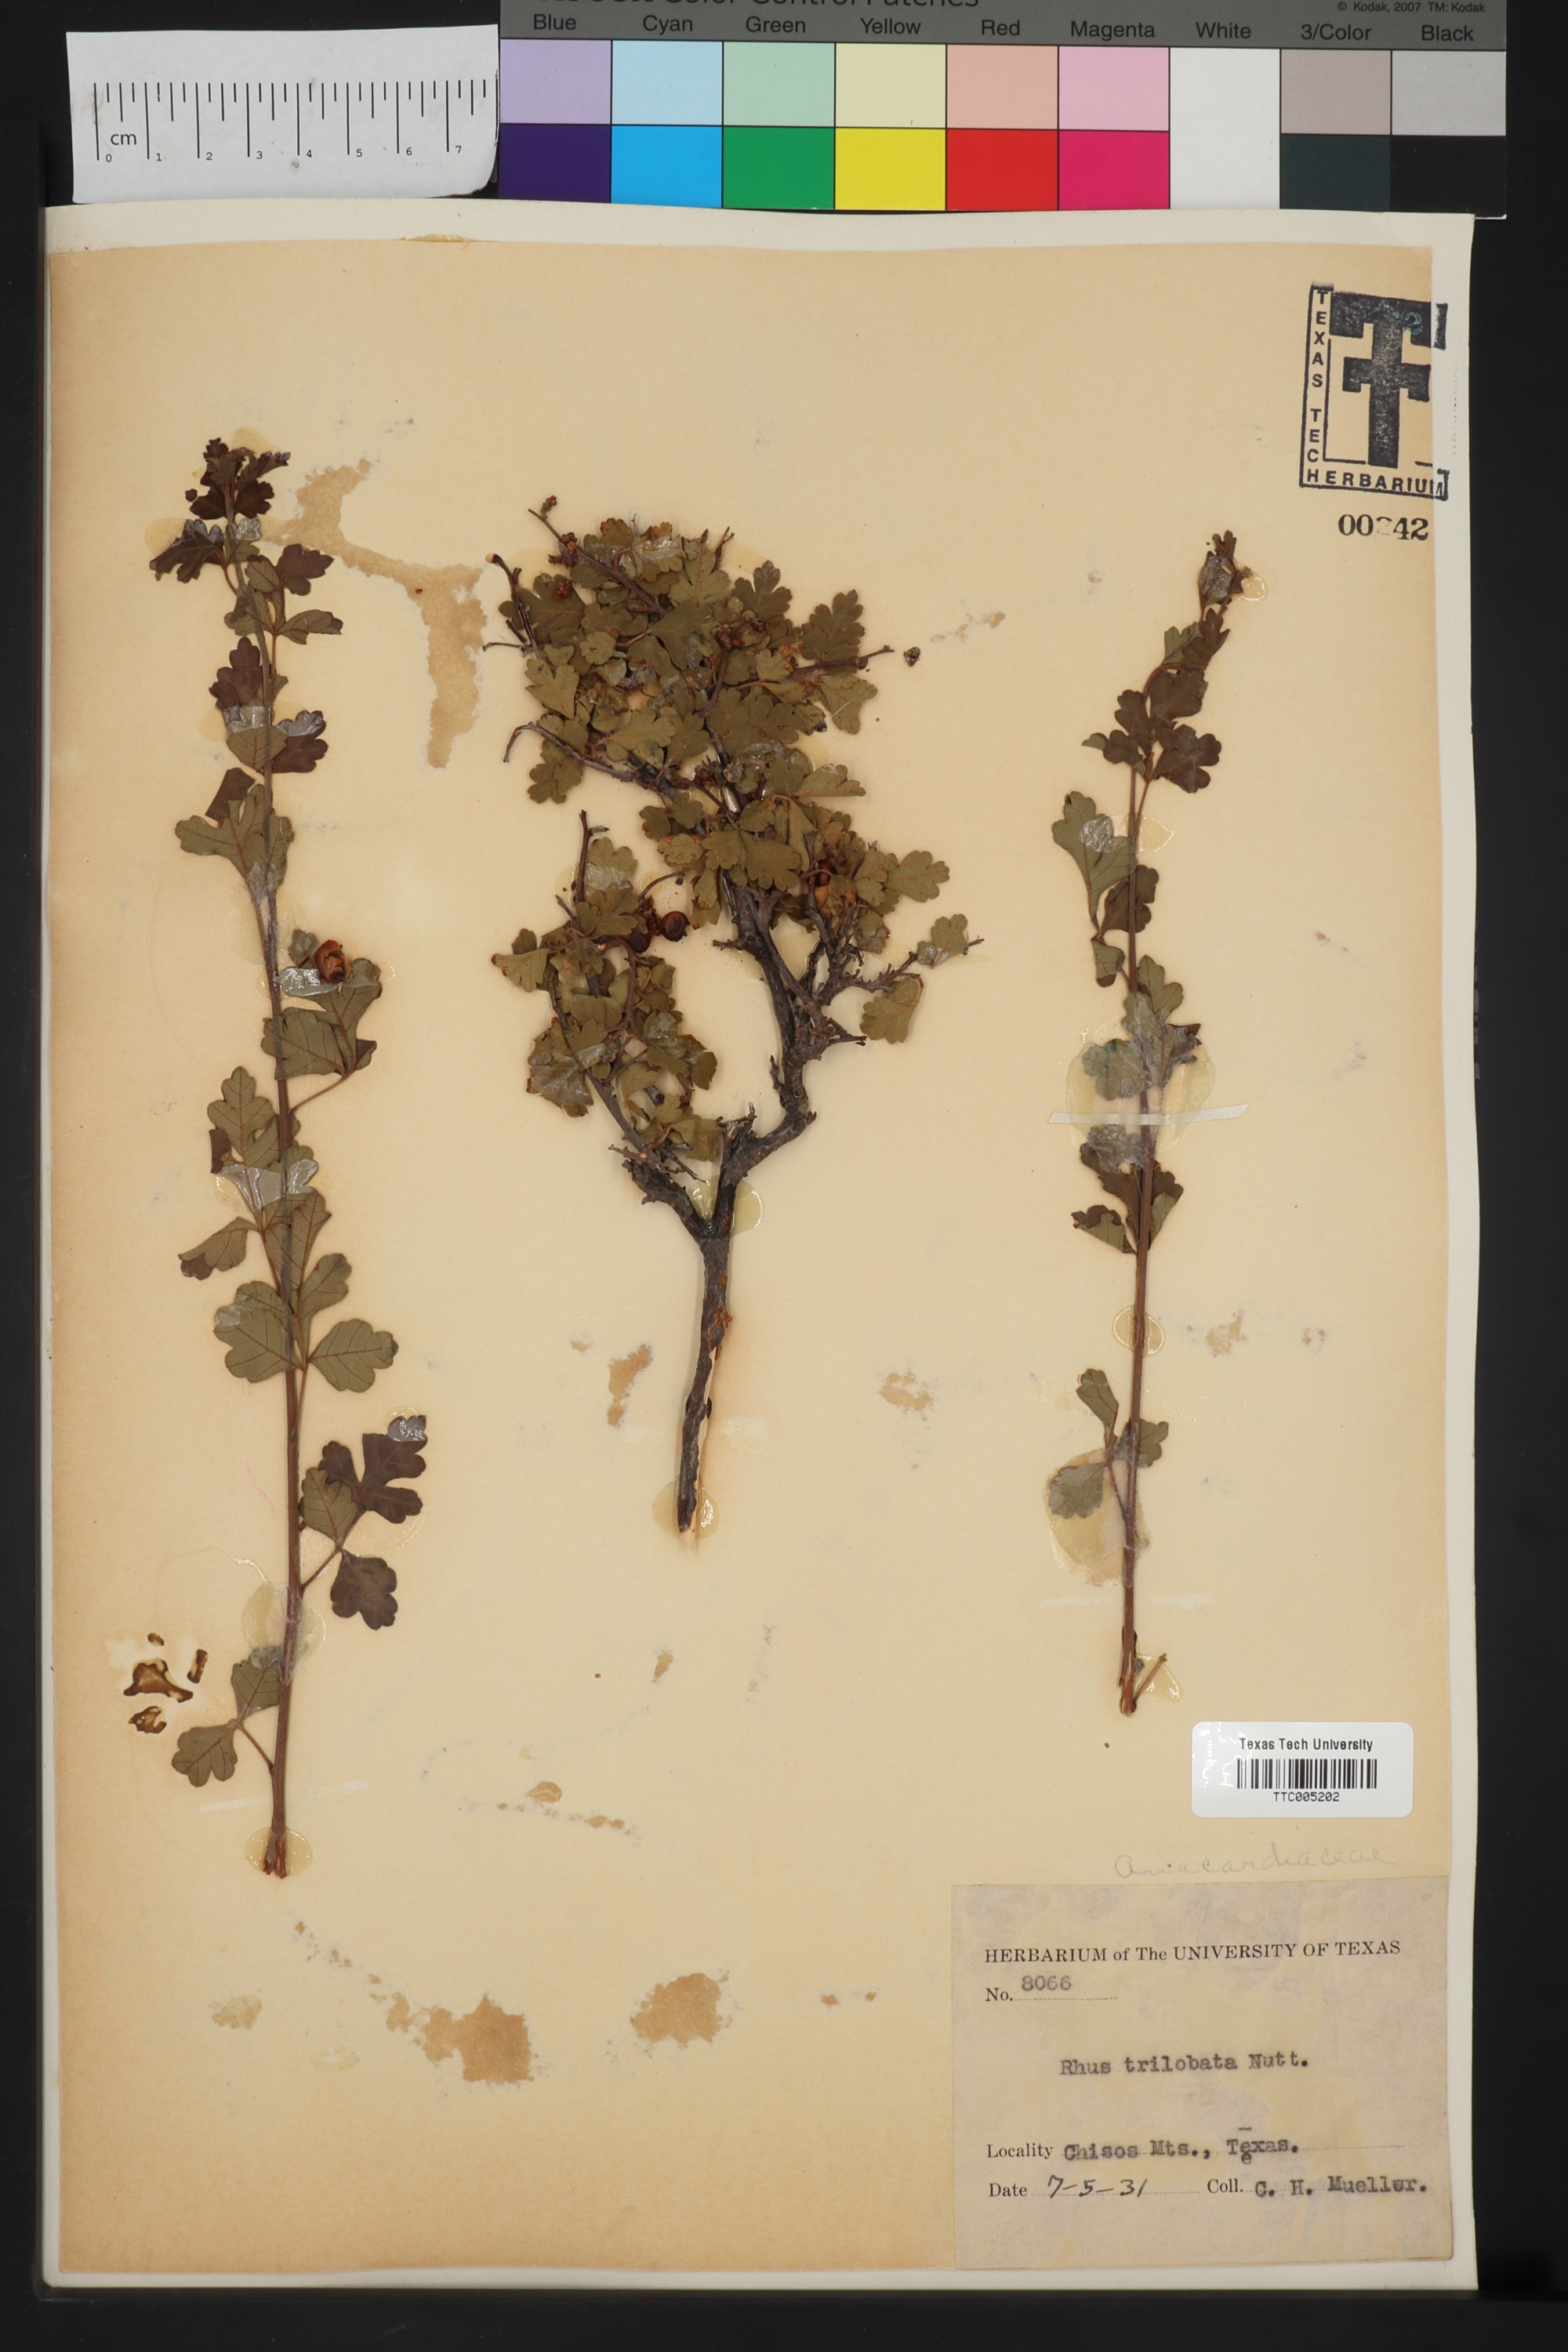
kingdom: Plantae
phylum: Tracheophyta
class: Magnoliopsida
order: Sapindales
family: Anacardiaceae
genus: Rhus
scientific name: Rhus trilobata
